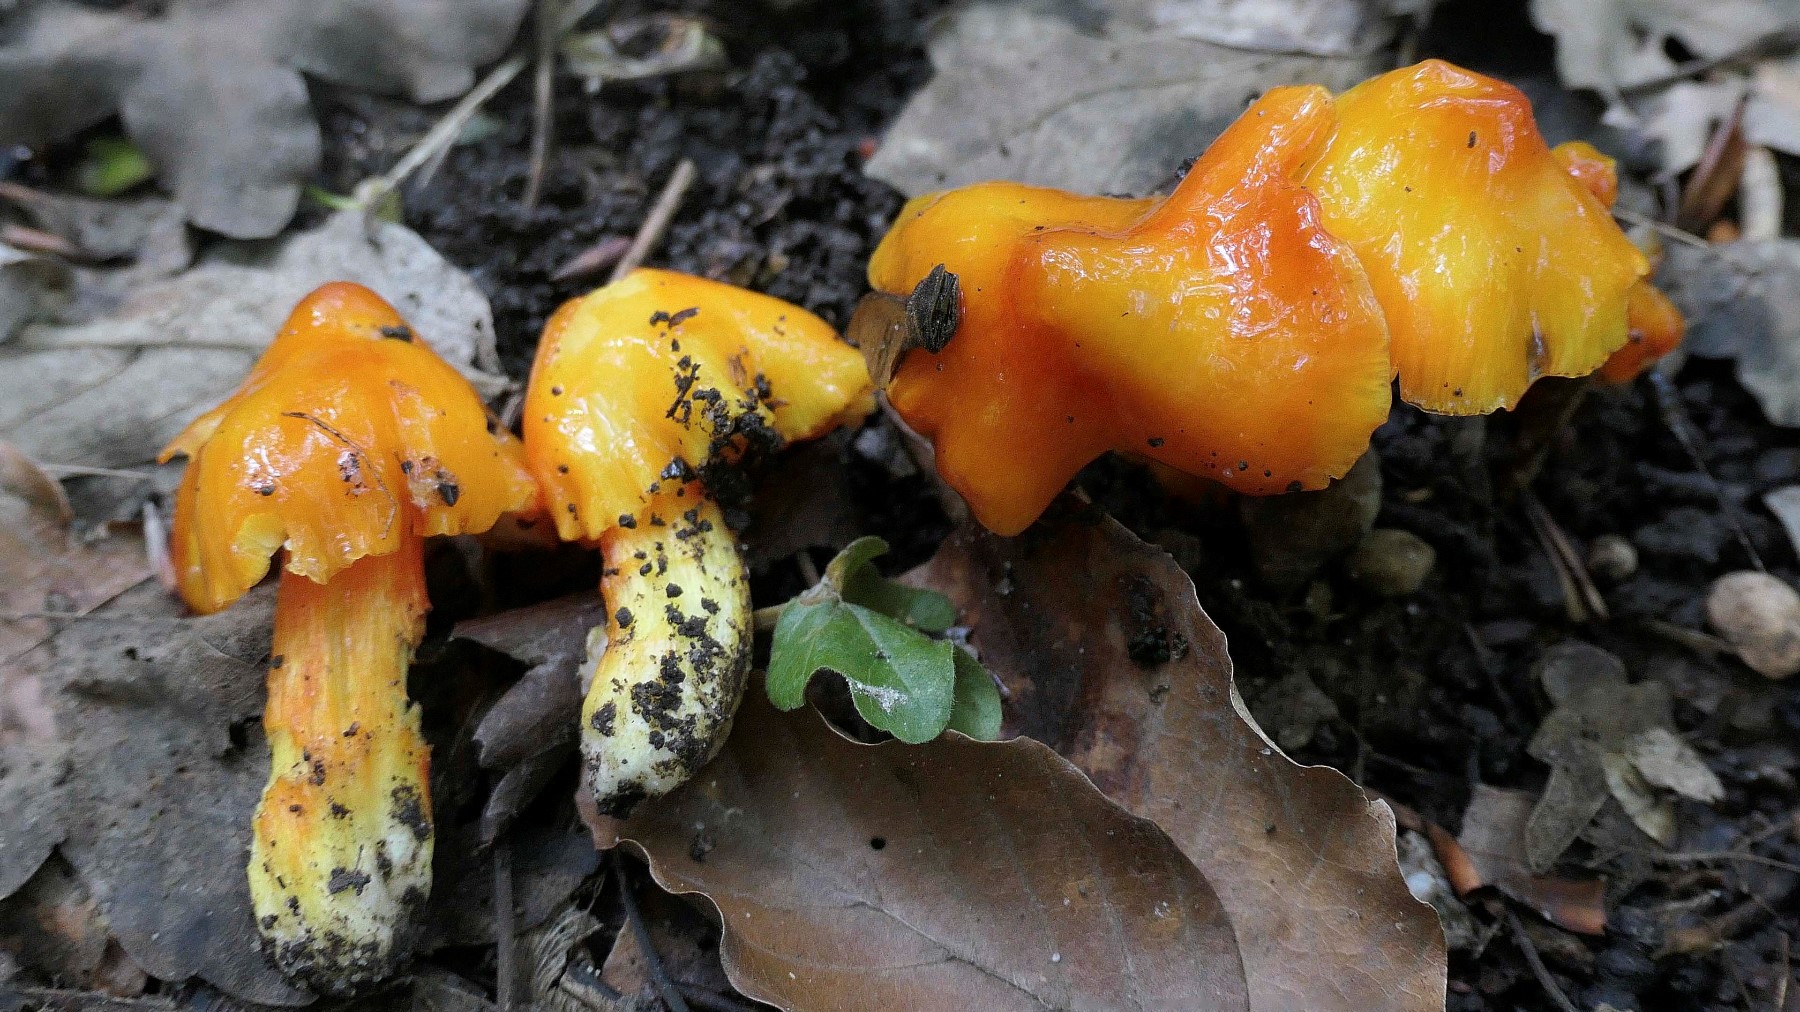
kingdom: Fungi
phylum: Basidiomycota
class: Agaricomycetes
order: Agaricales
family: Hygrophoraceae
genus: Hygrocybe
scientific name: Hygrocybe acutoconica
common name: spidspuklet vokshat
